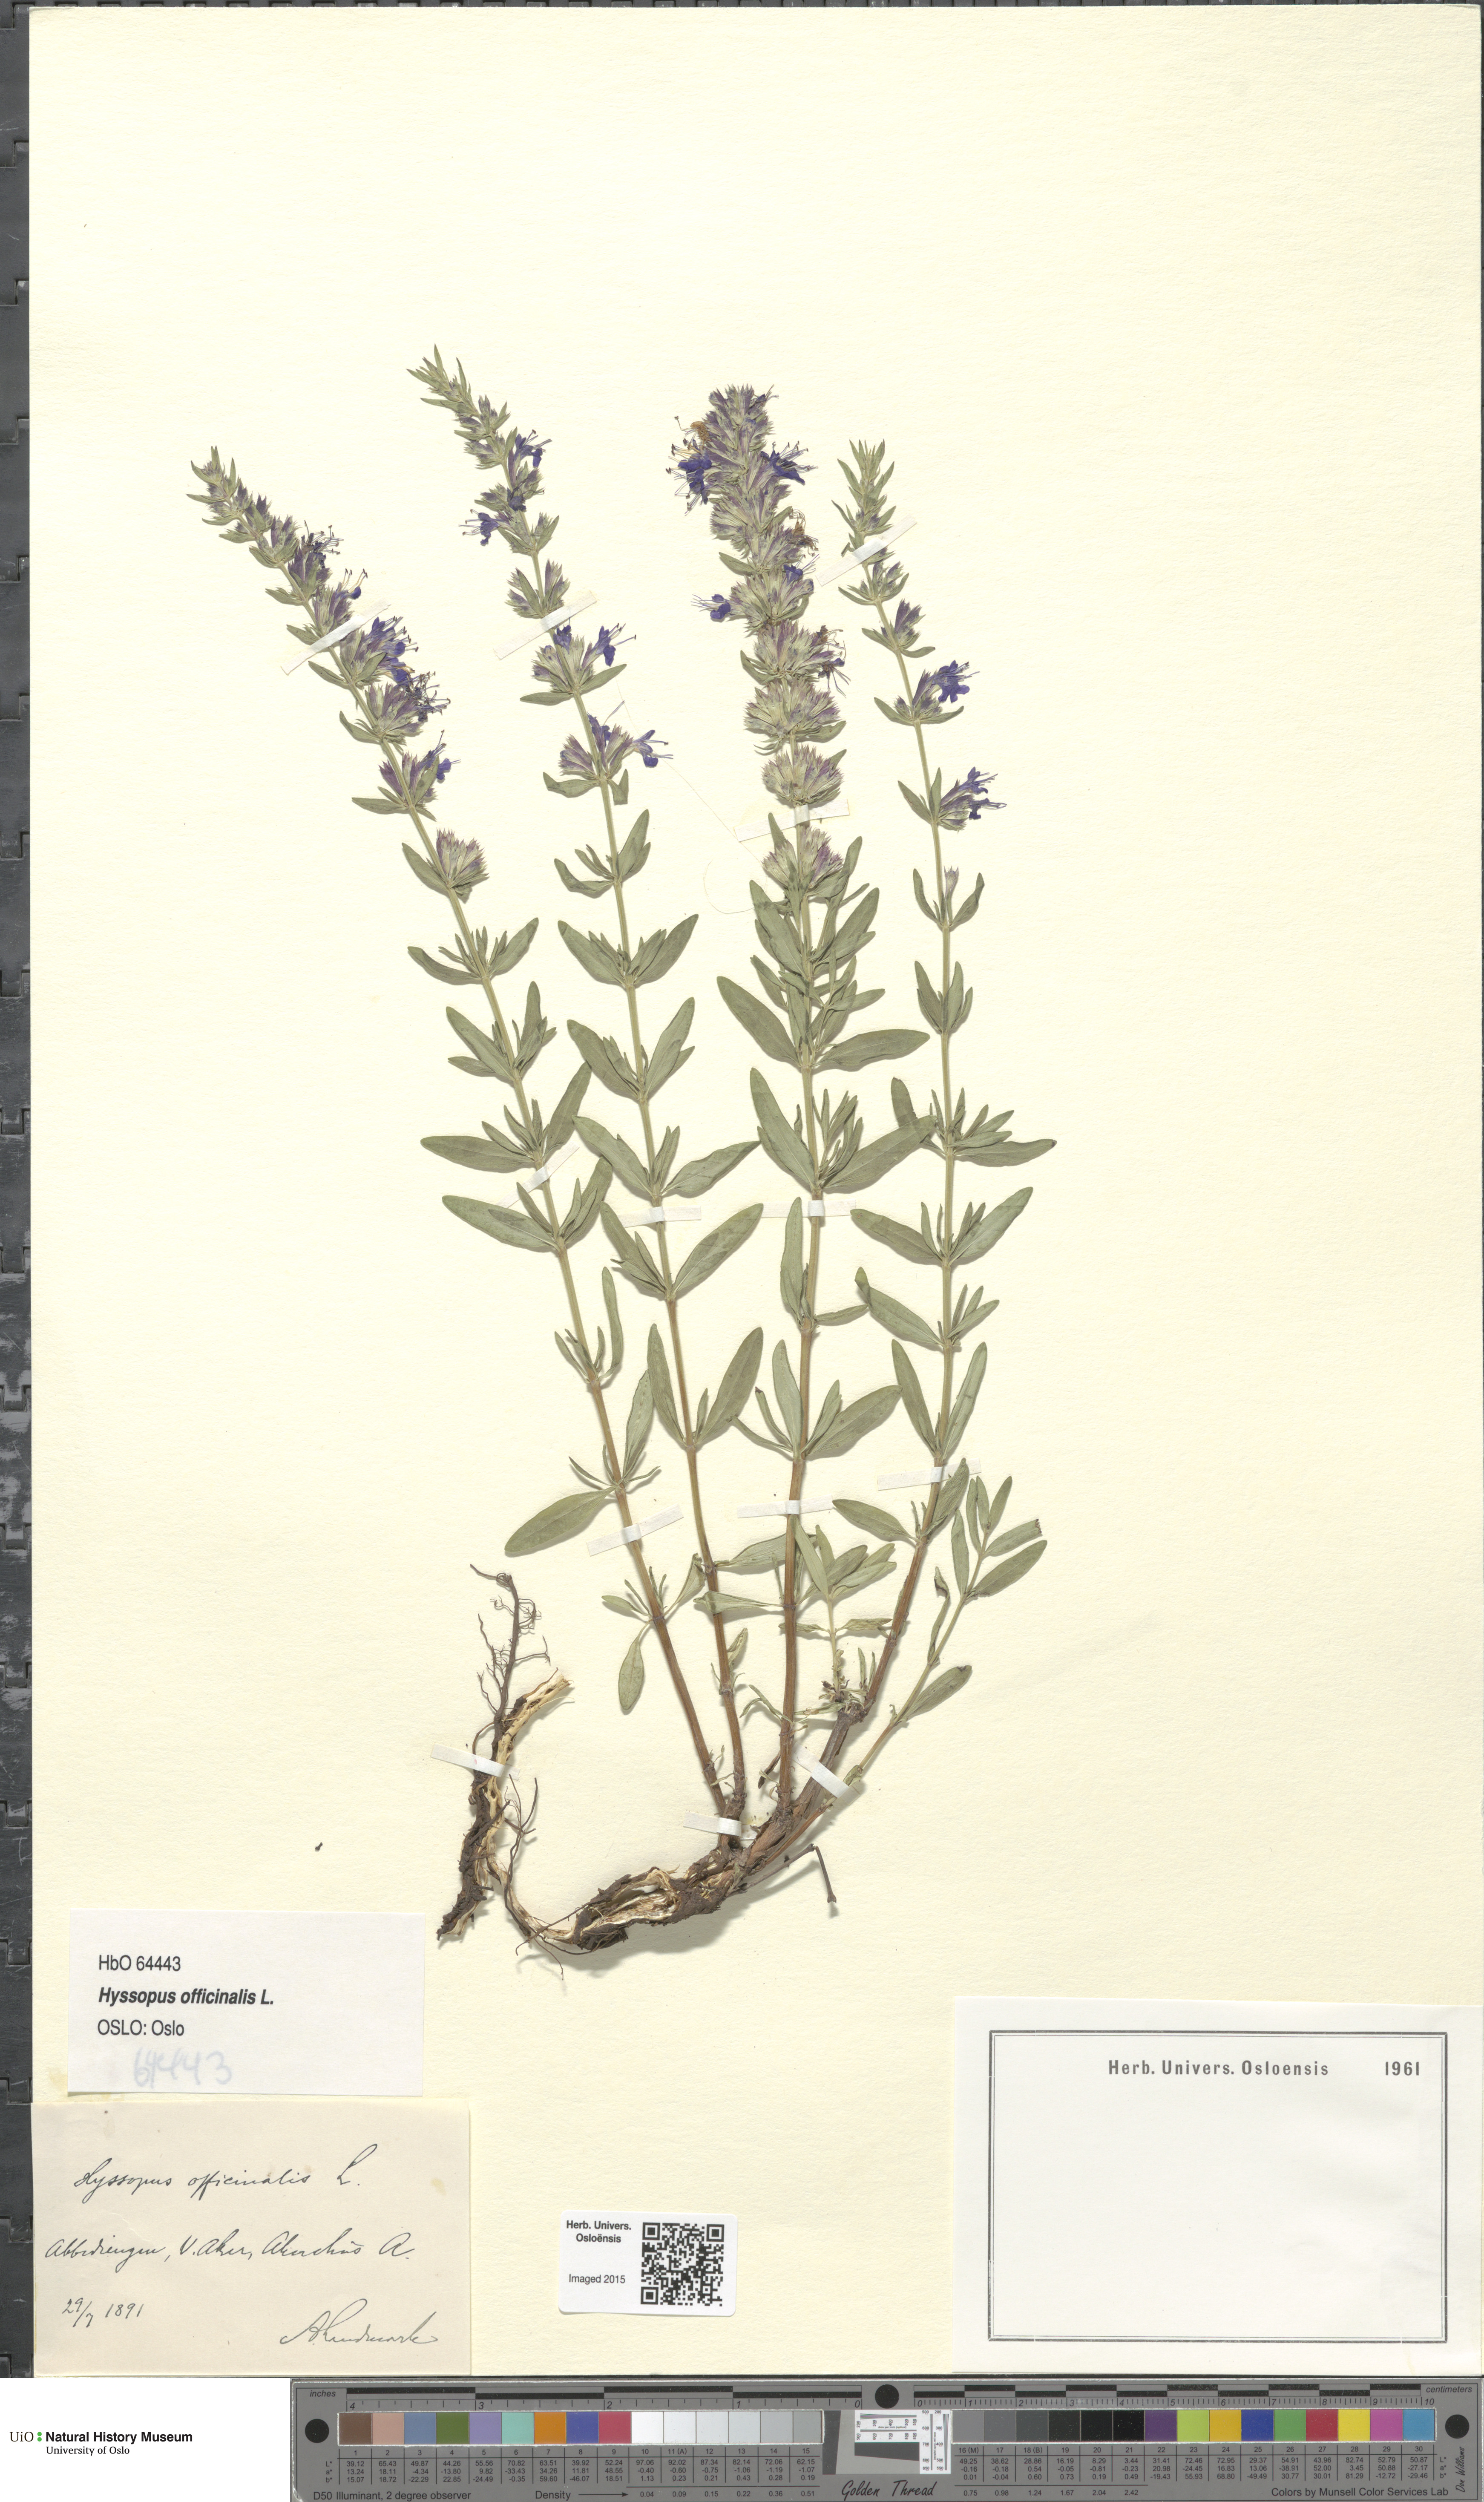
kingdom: Plantae
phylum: Tracheophyta
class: Magnoliopsida
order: Lamiales
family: Lamiaceae
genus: Hyssopus
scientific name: Hyssopus officinalis
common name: Hyssop
